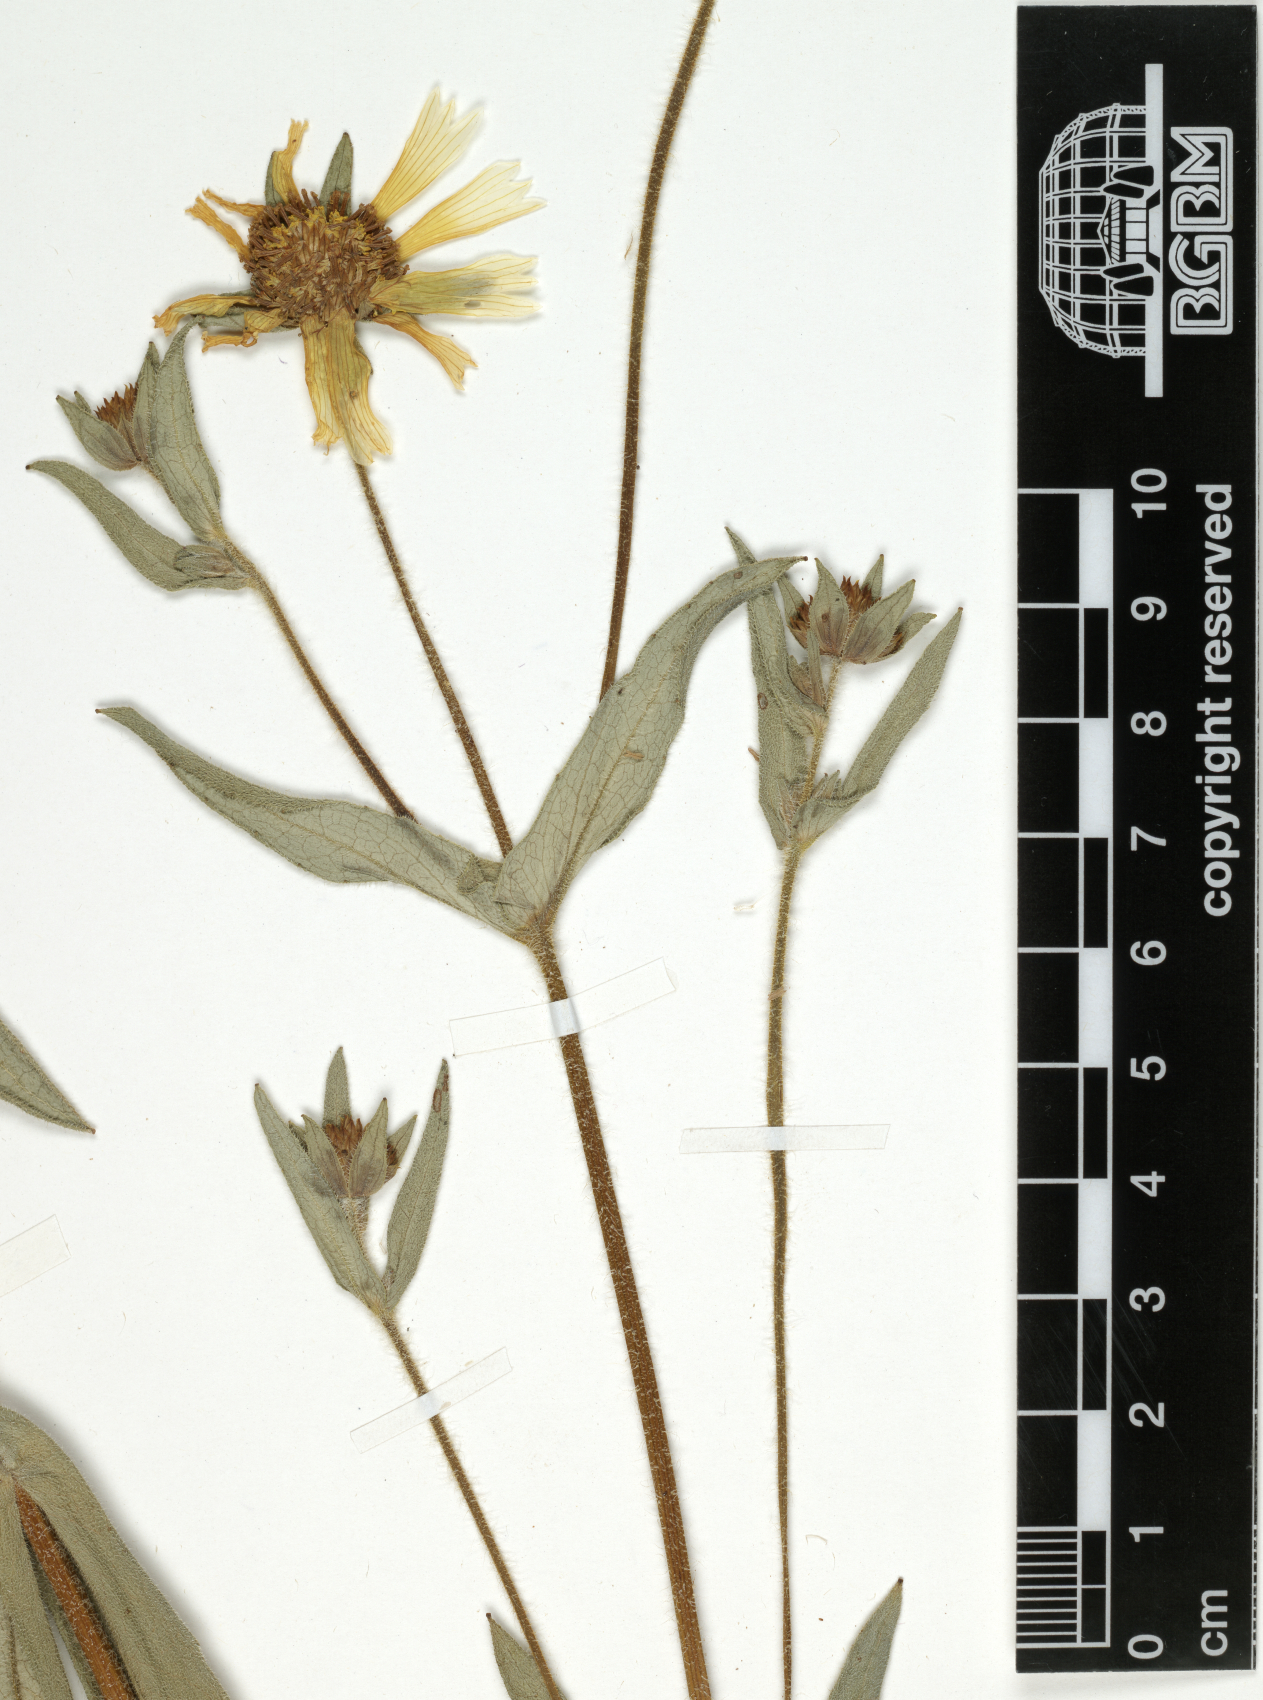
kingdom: Plantae
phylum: Tracheophyta
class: Magnoliopsida
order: Asterales
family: Asteraceae
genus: Guizotia
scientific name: Guizotia scabra
